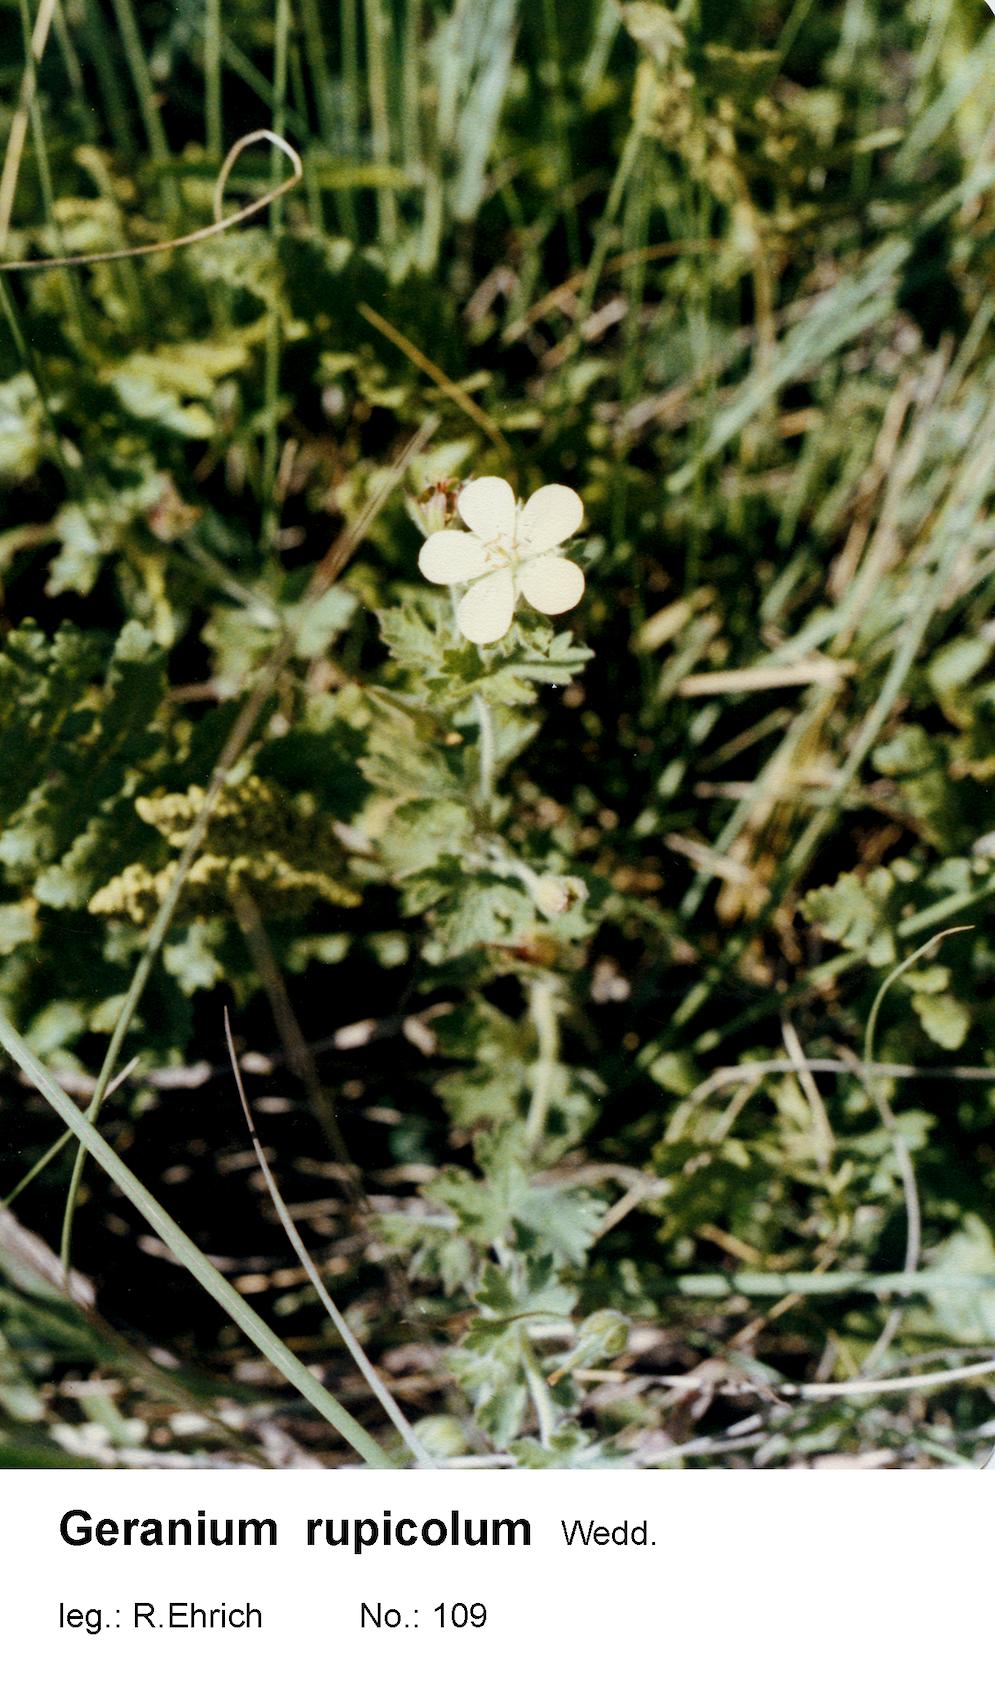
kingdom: Plantae
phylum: Tracheophyta
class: Magnoliopsida
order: Geraniales
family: Geraniaceae
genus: Geranium
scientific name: Geranium rupicola
